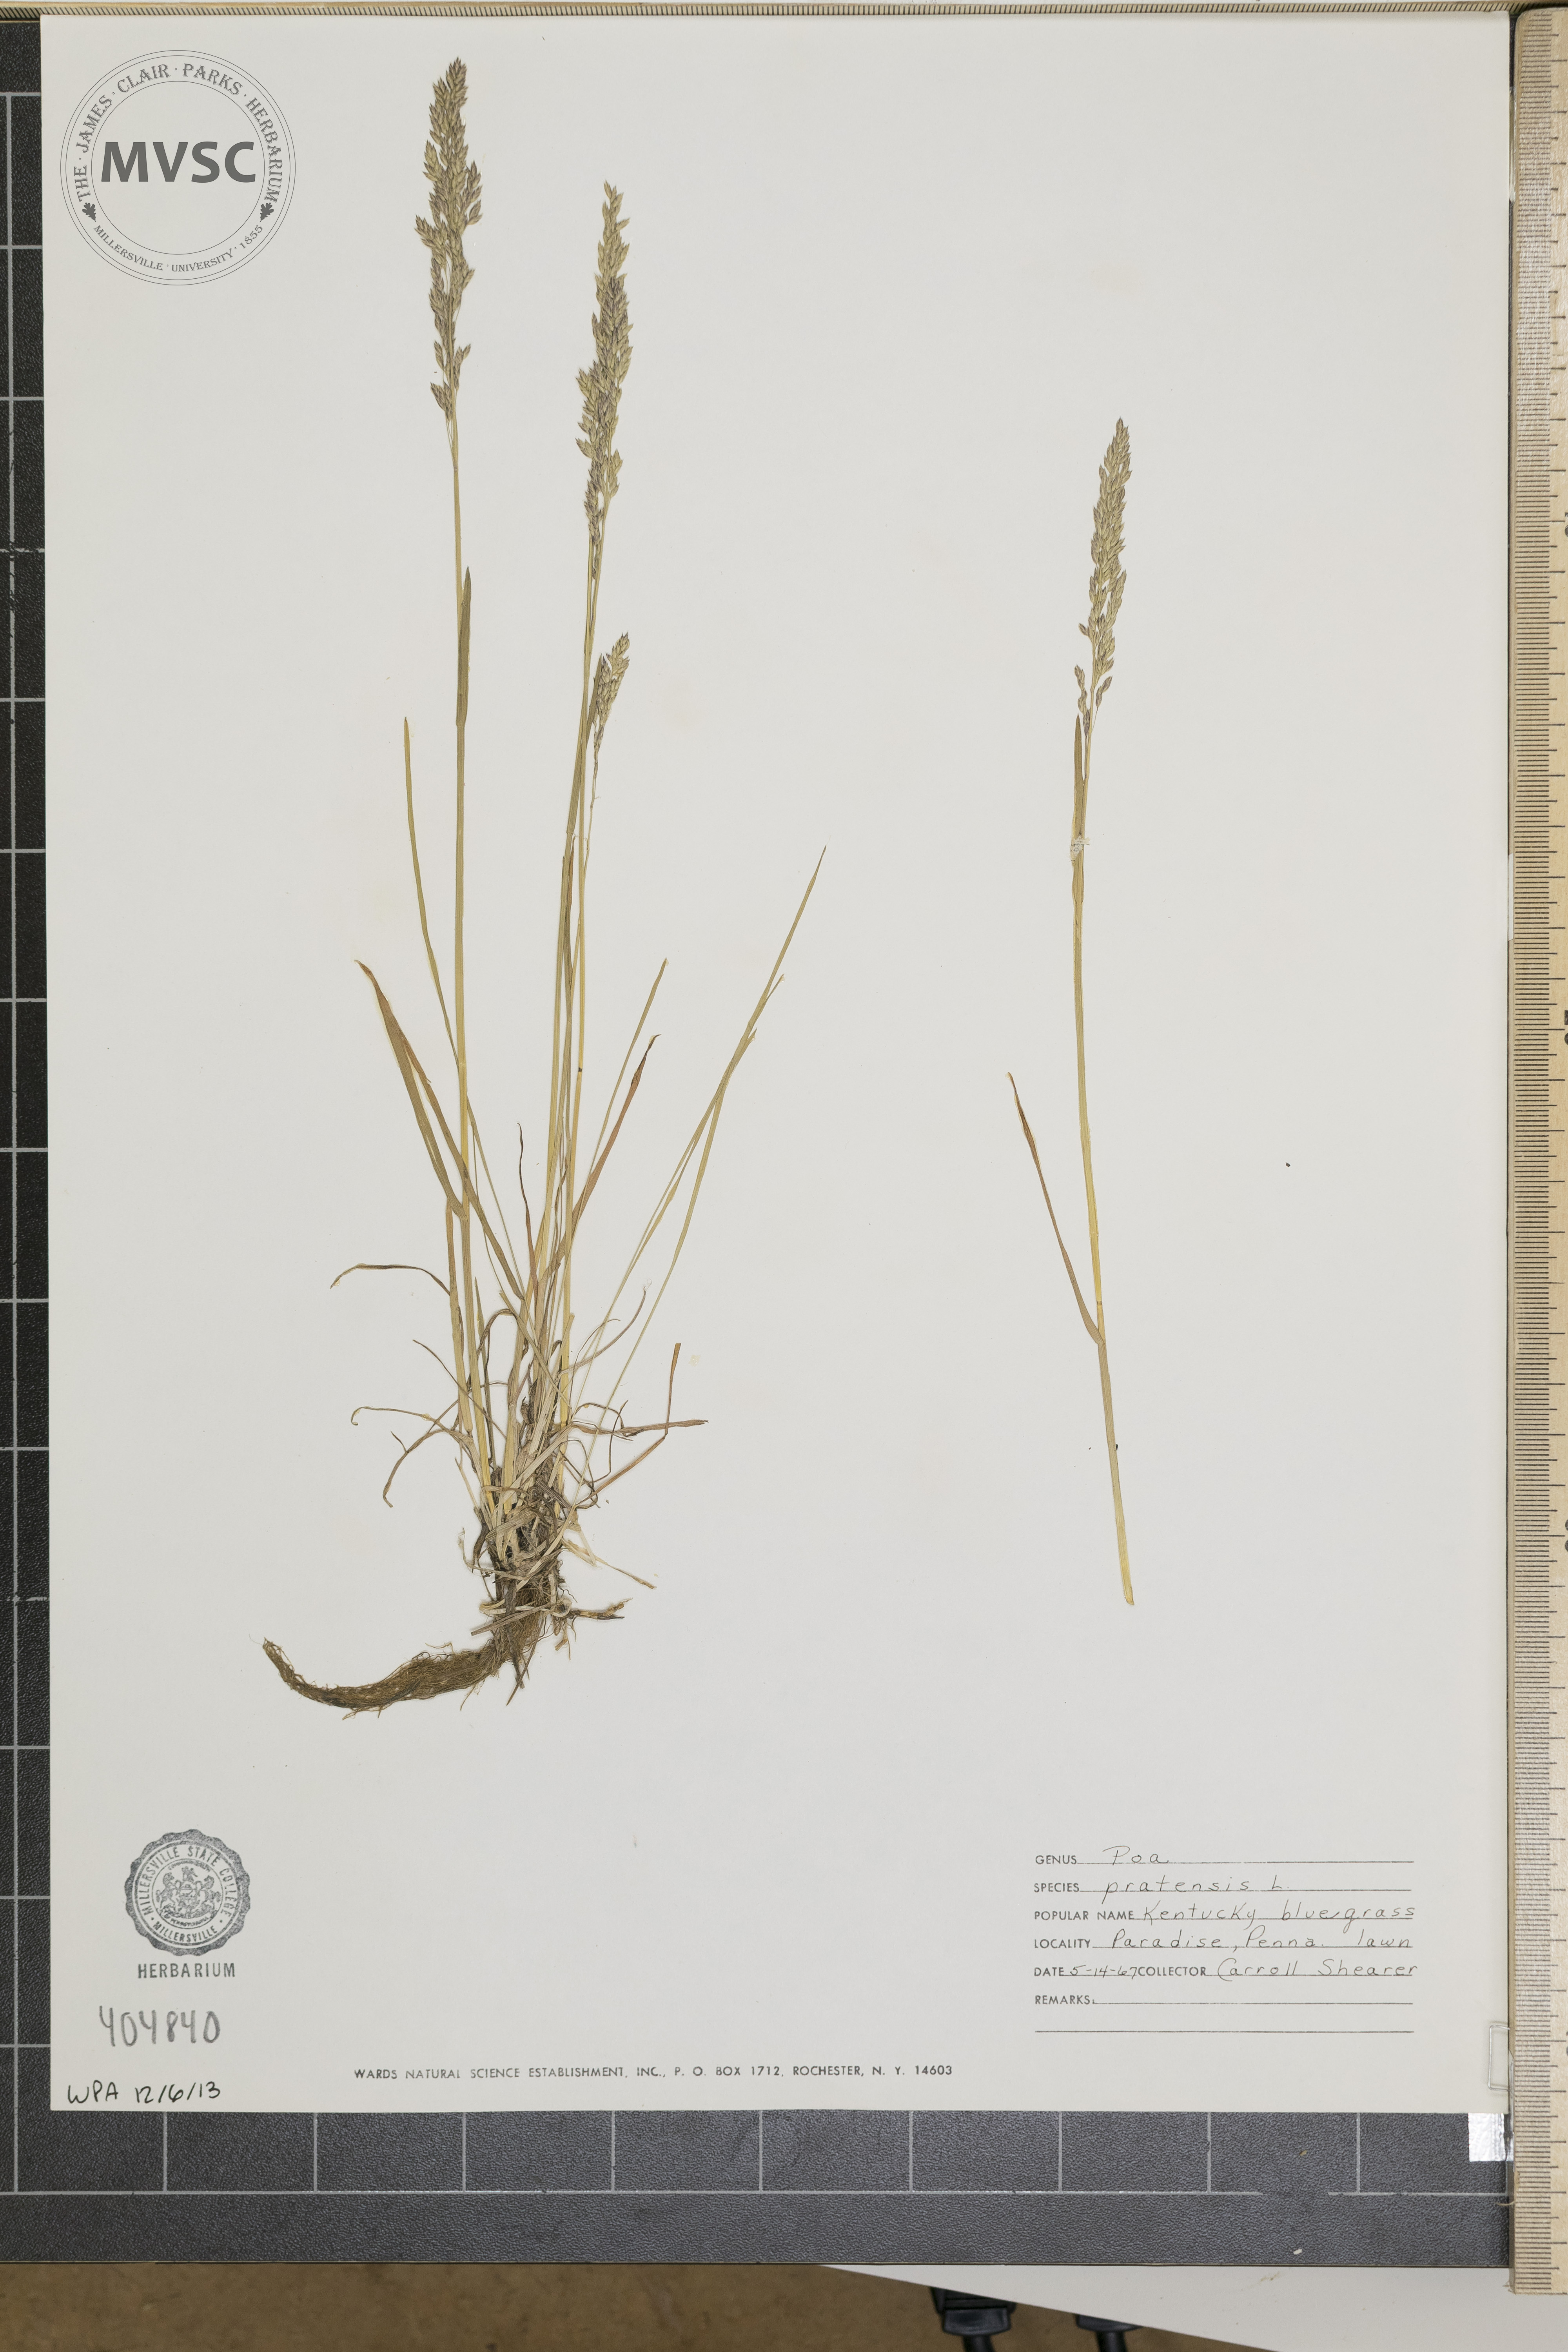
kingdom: Plantae
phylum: Tracheophyta
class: Liliopsida
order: Poales
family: Poaceae
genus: Poa
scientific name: Poa pratensis
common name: Kentucky Bluegrass
